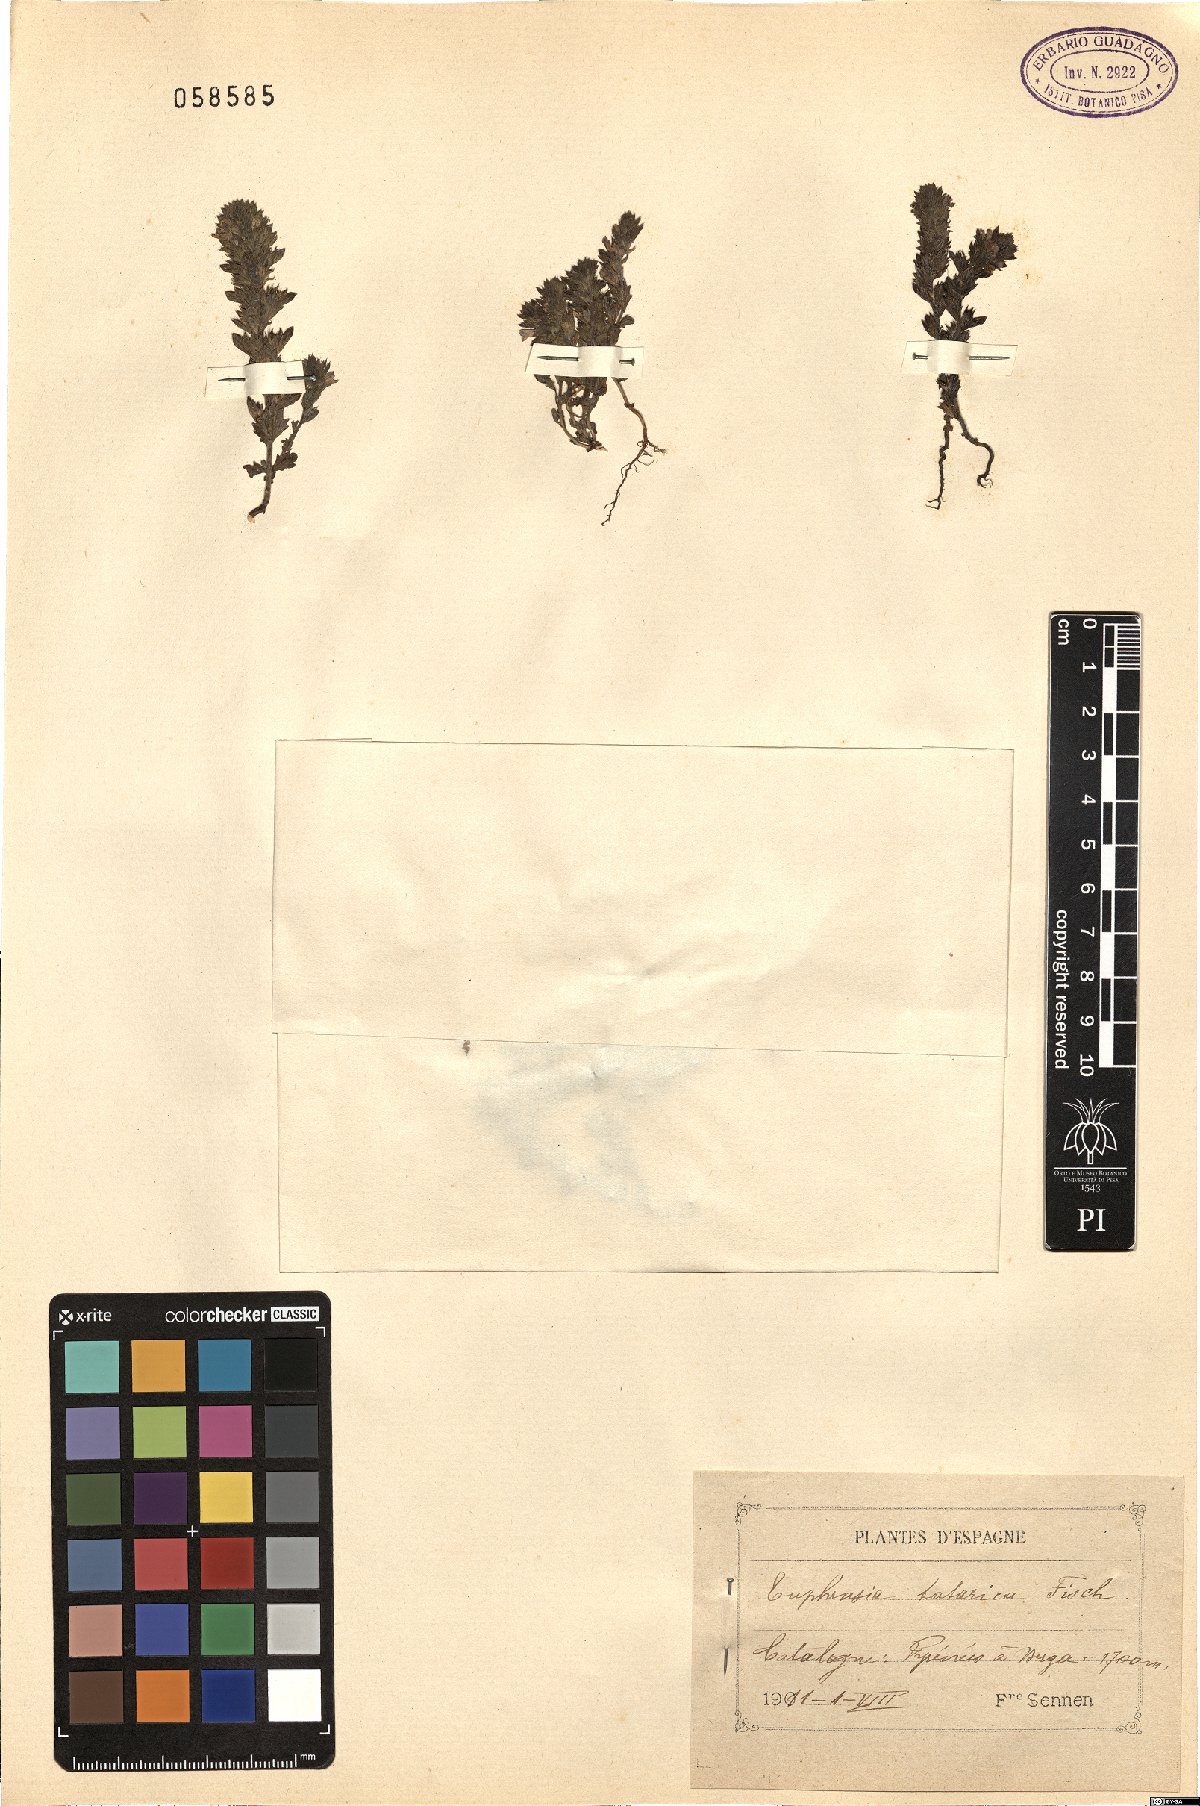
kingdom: Plantae
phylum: Tracheophyta
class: Magnoliopsida
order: Lamiales
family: Orobanchaceae
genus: Euphrasia
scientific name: Euphrasia pectinata
